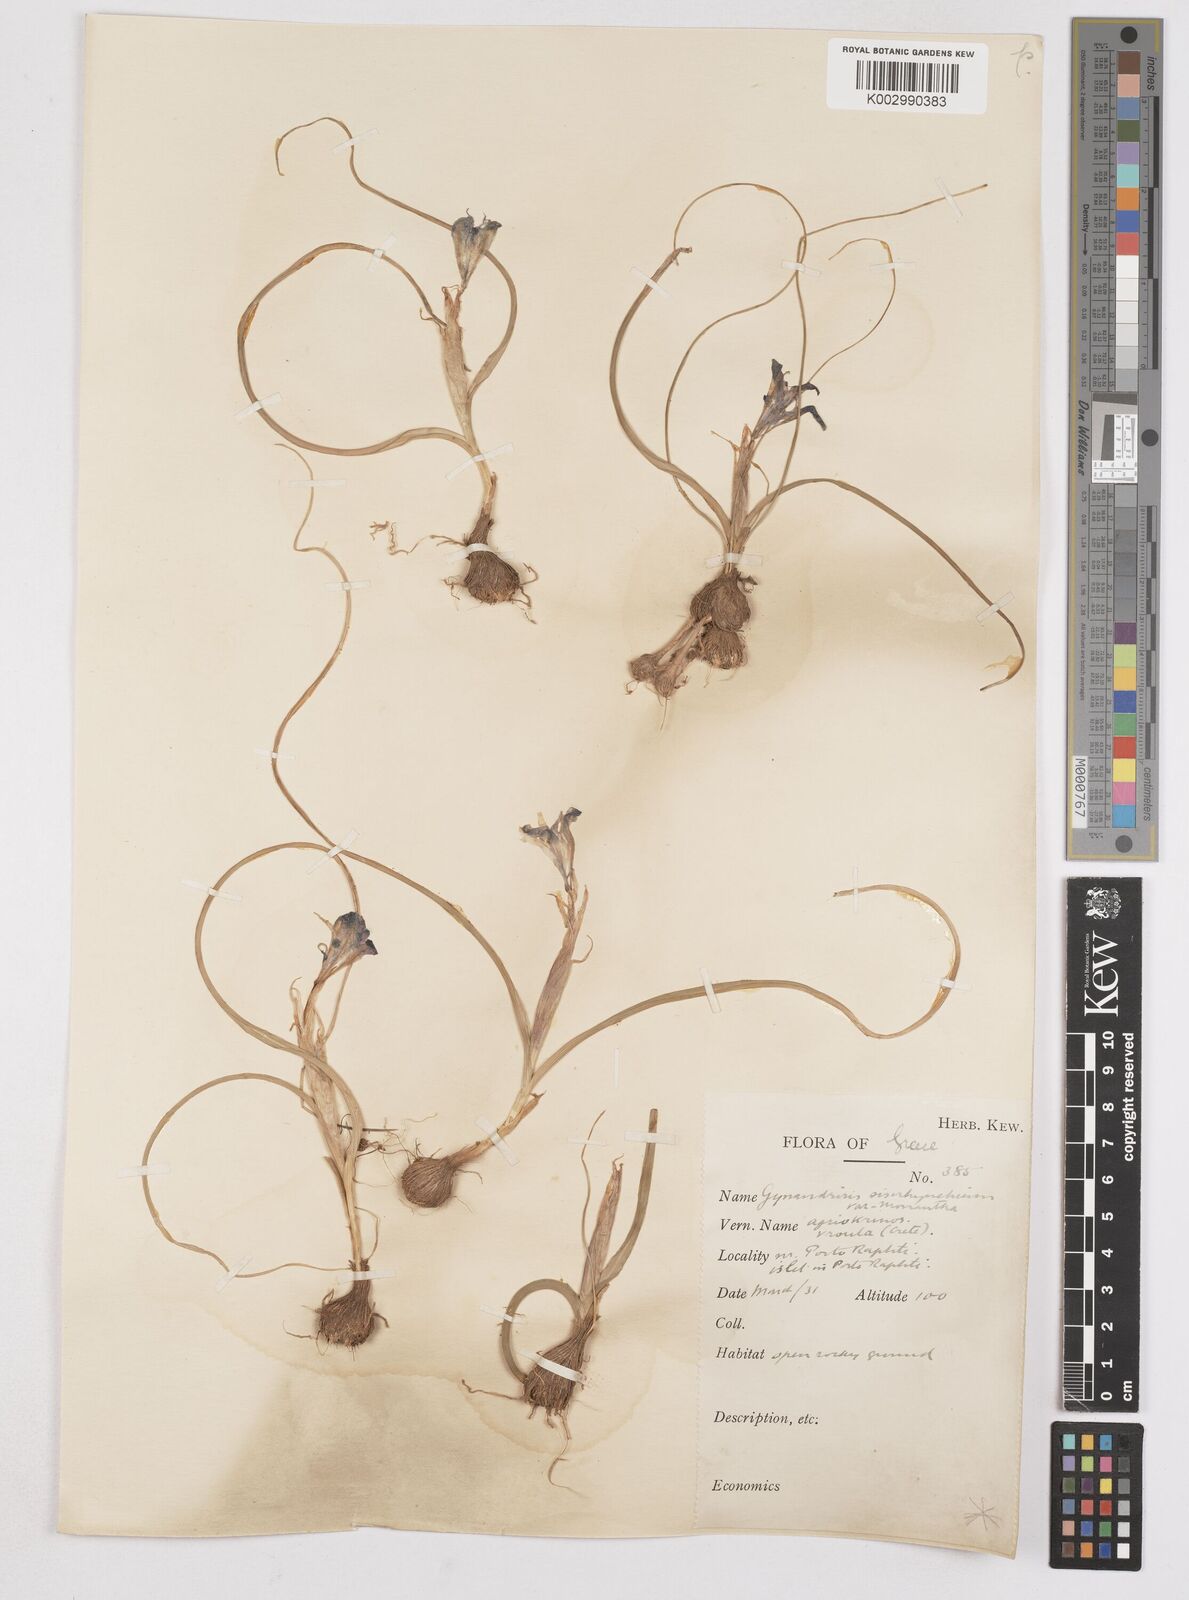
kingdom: Plantae
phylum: Tracheophyta
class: Liliopsida
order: Asparagales
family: Iridaceae
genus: Moraea
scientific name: Moraea sisyrinchium
